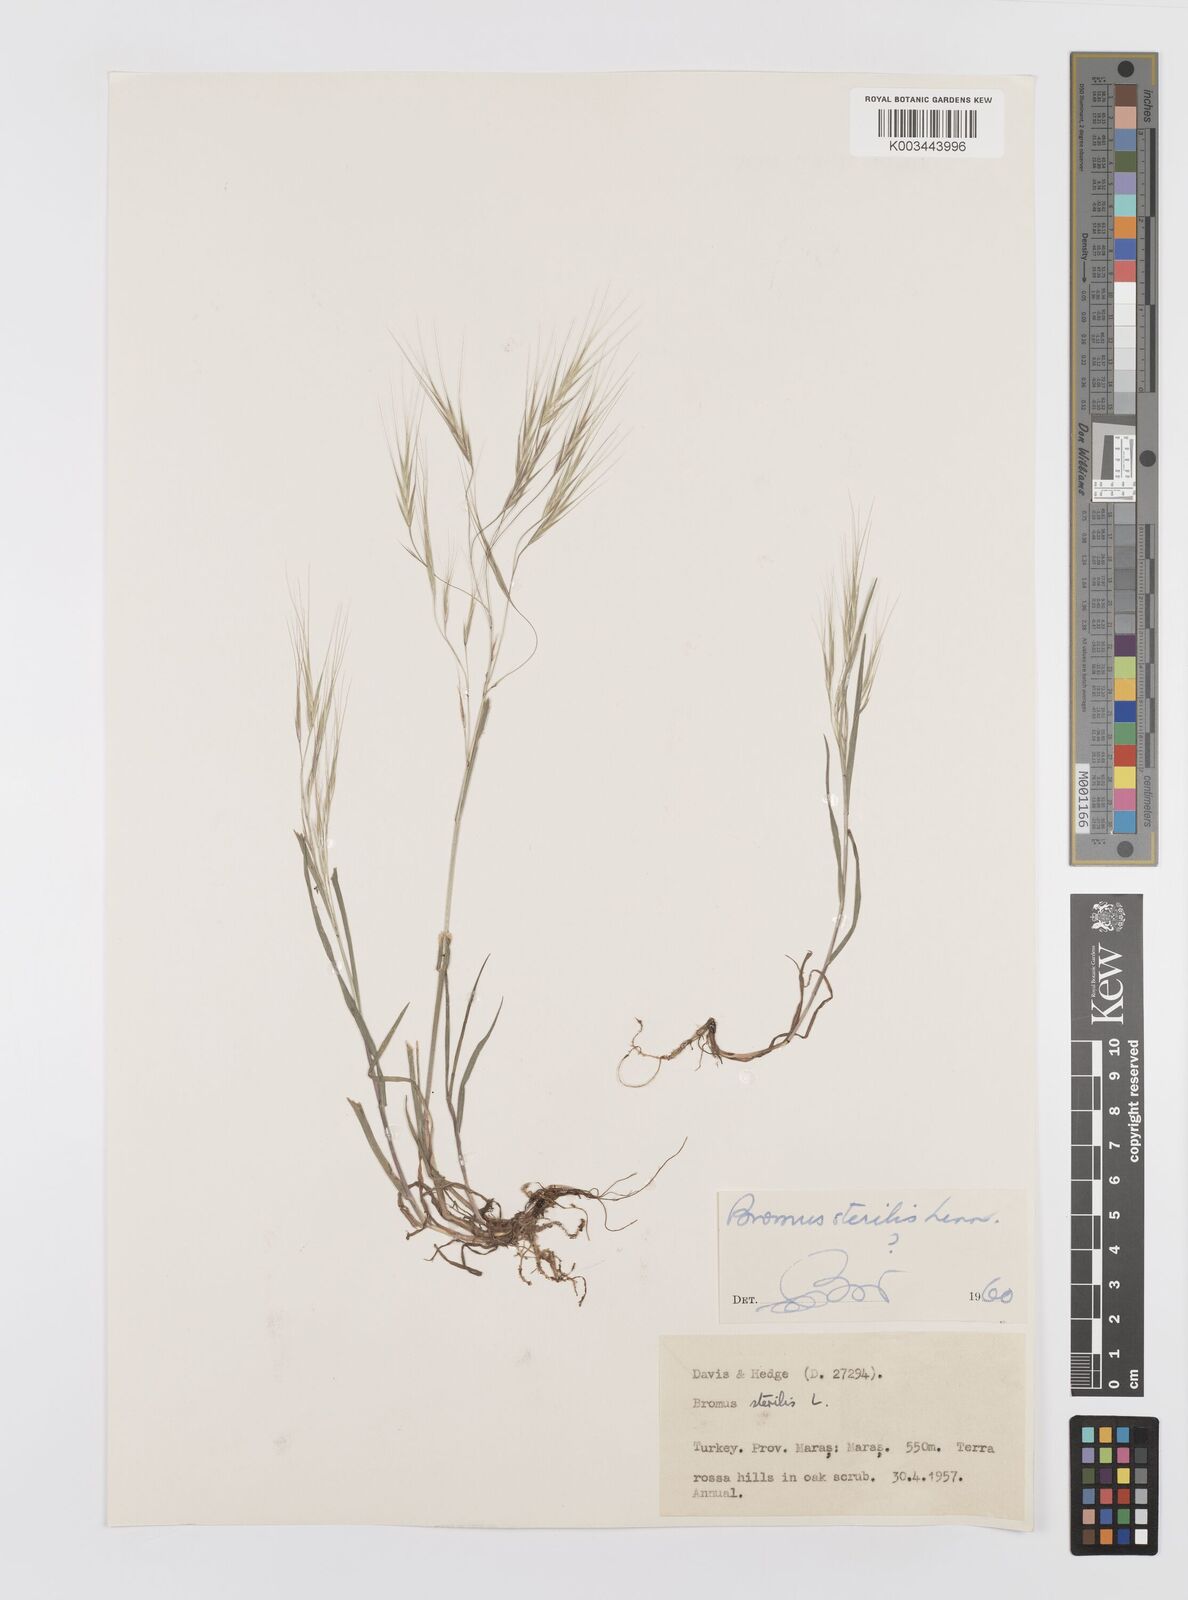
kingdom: Plantae
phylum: Tracheophyta
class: Liliopsida
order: Poales
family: Poaceae
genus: Bromus
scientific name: Bromus sterilis
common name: Poverty brome
